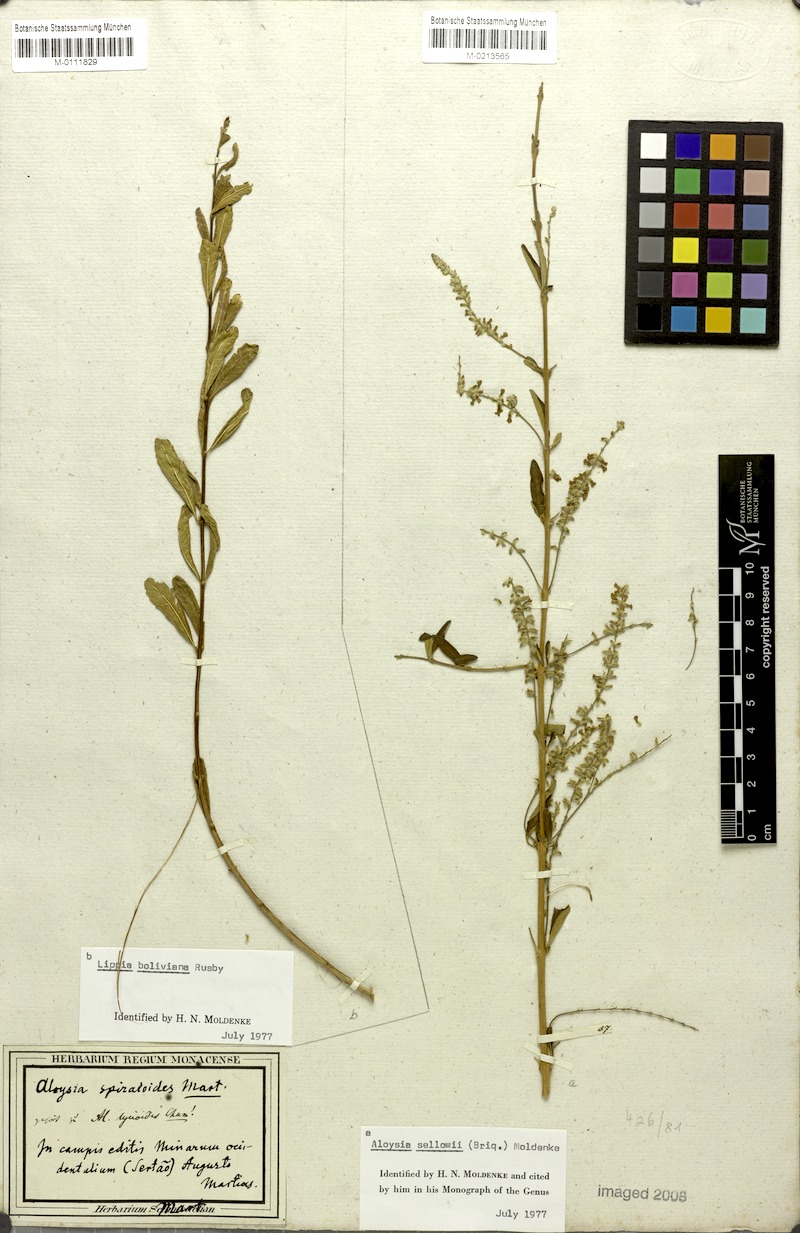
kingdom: Plantae
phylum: Tracheophyta
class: Magnoliopsida
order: Lamiales
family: Verbenaceae
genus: Aloysia
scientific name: Aloysia gratissima
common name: Common bee-brush
